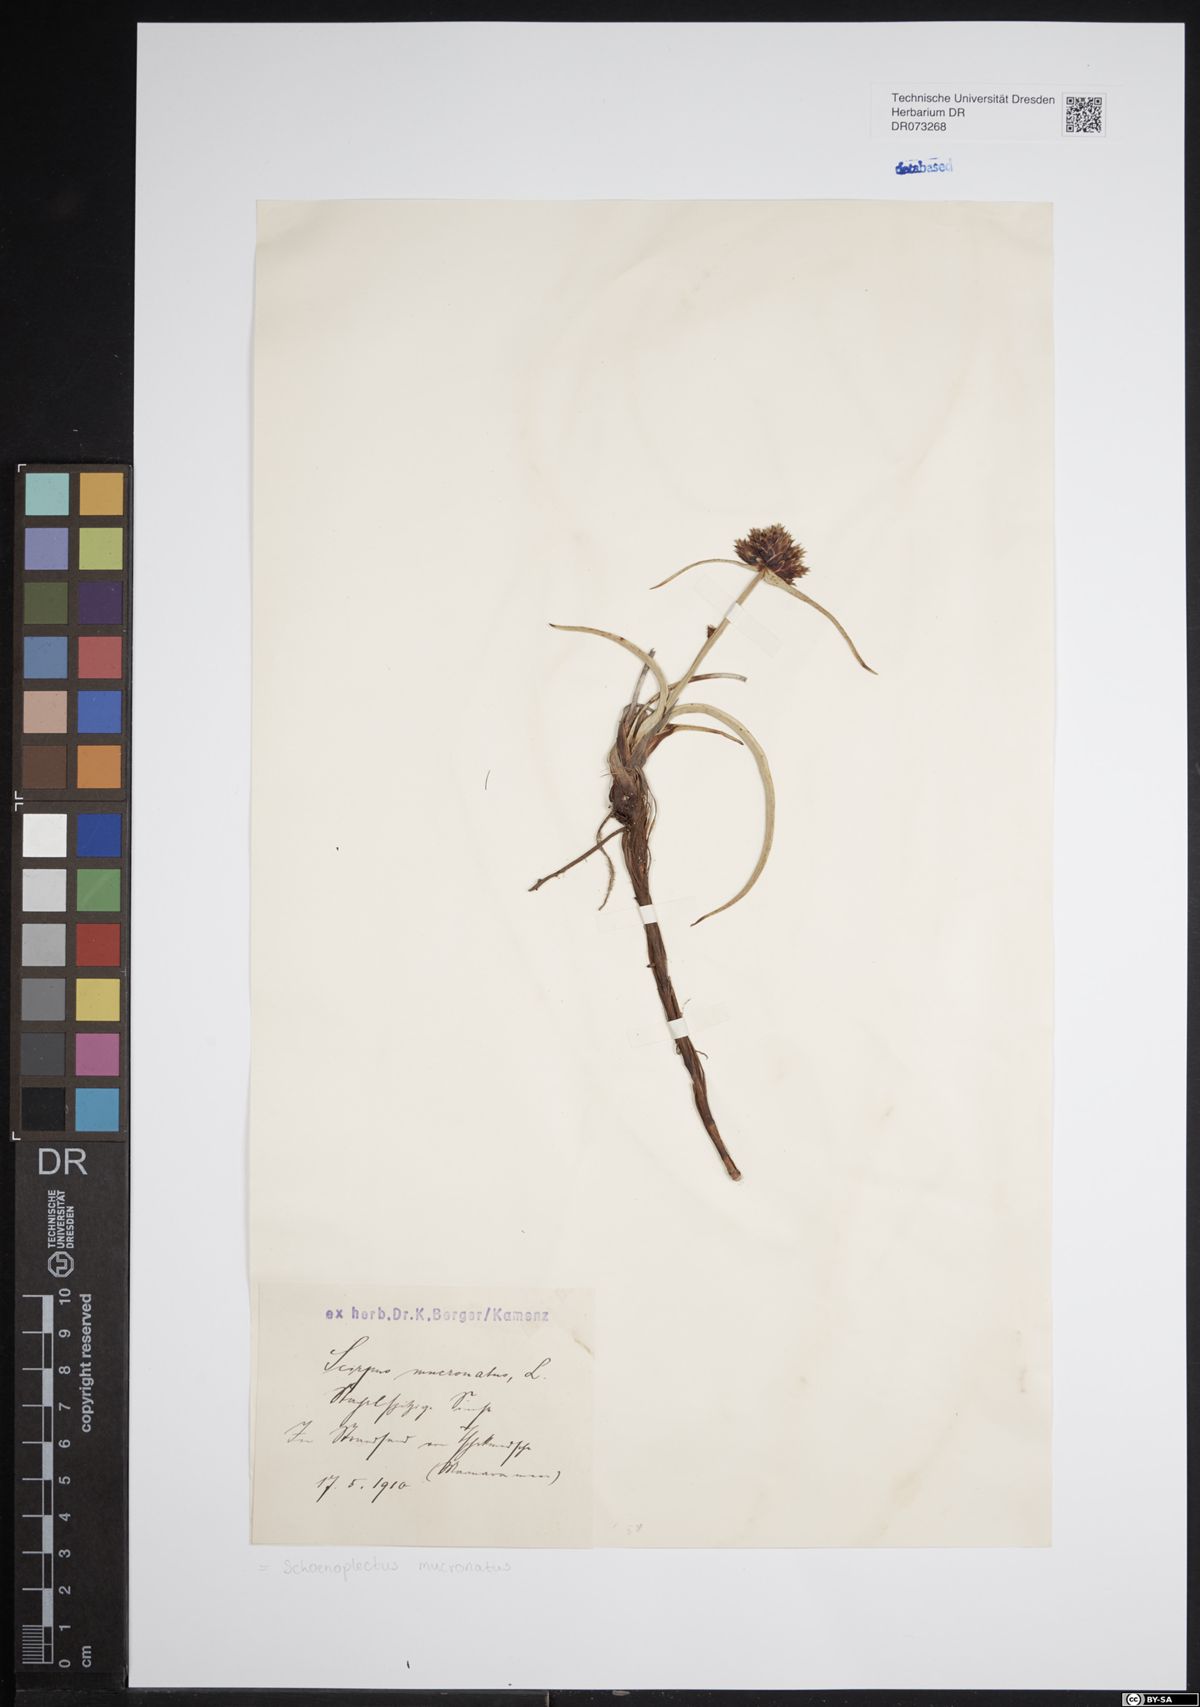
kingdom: Plantae
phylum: Tracheophyta
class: Liliopsida
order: Poales
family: Cyperaceae
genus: Schoenoplectiella
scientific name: Schoenoplectiella mucronata
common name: Bog bulrush
